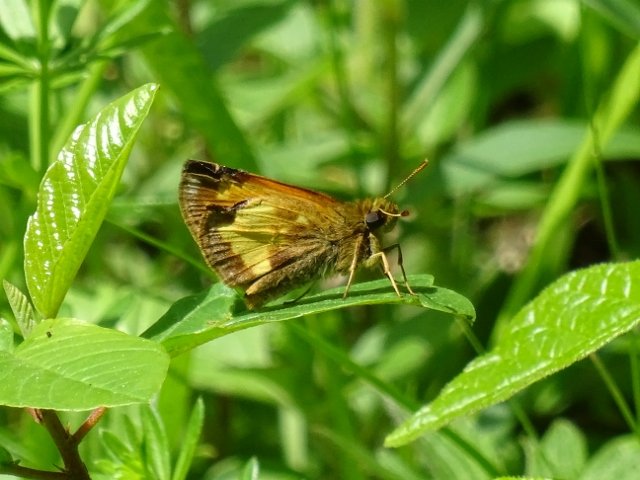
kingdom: Animalia
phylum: Arthropoda
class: Insecta
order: Lepidoptera
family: Hesperiidae
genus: Lon
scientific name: Lon hobomok
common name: Hobomok Skipper
